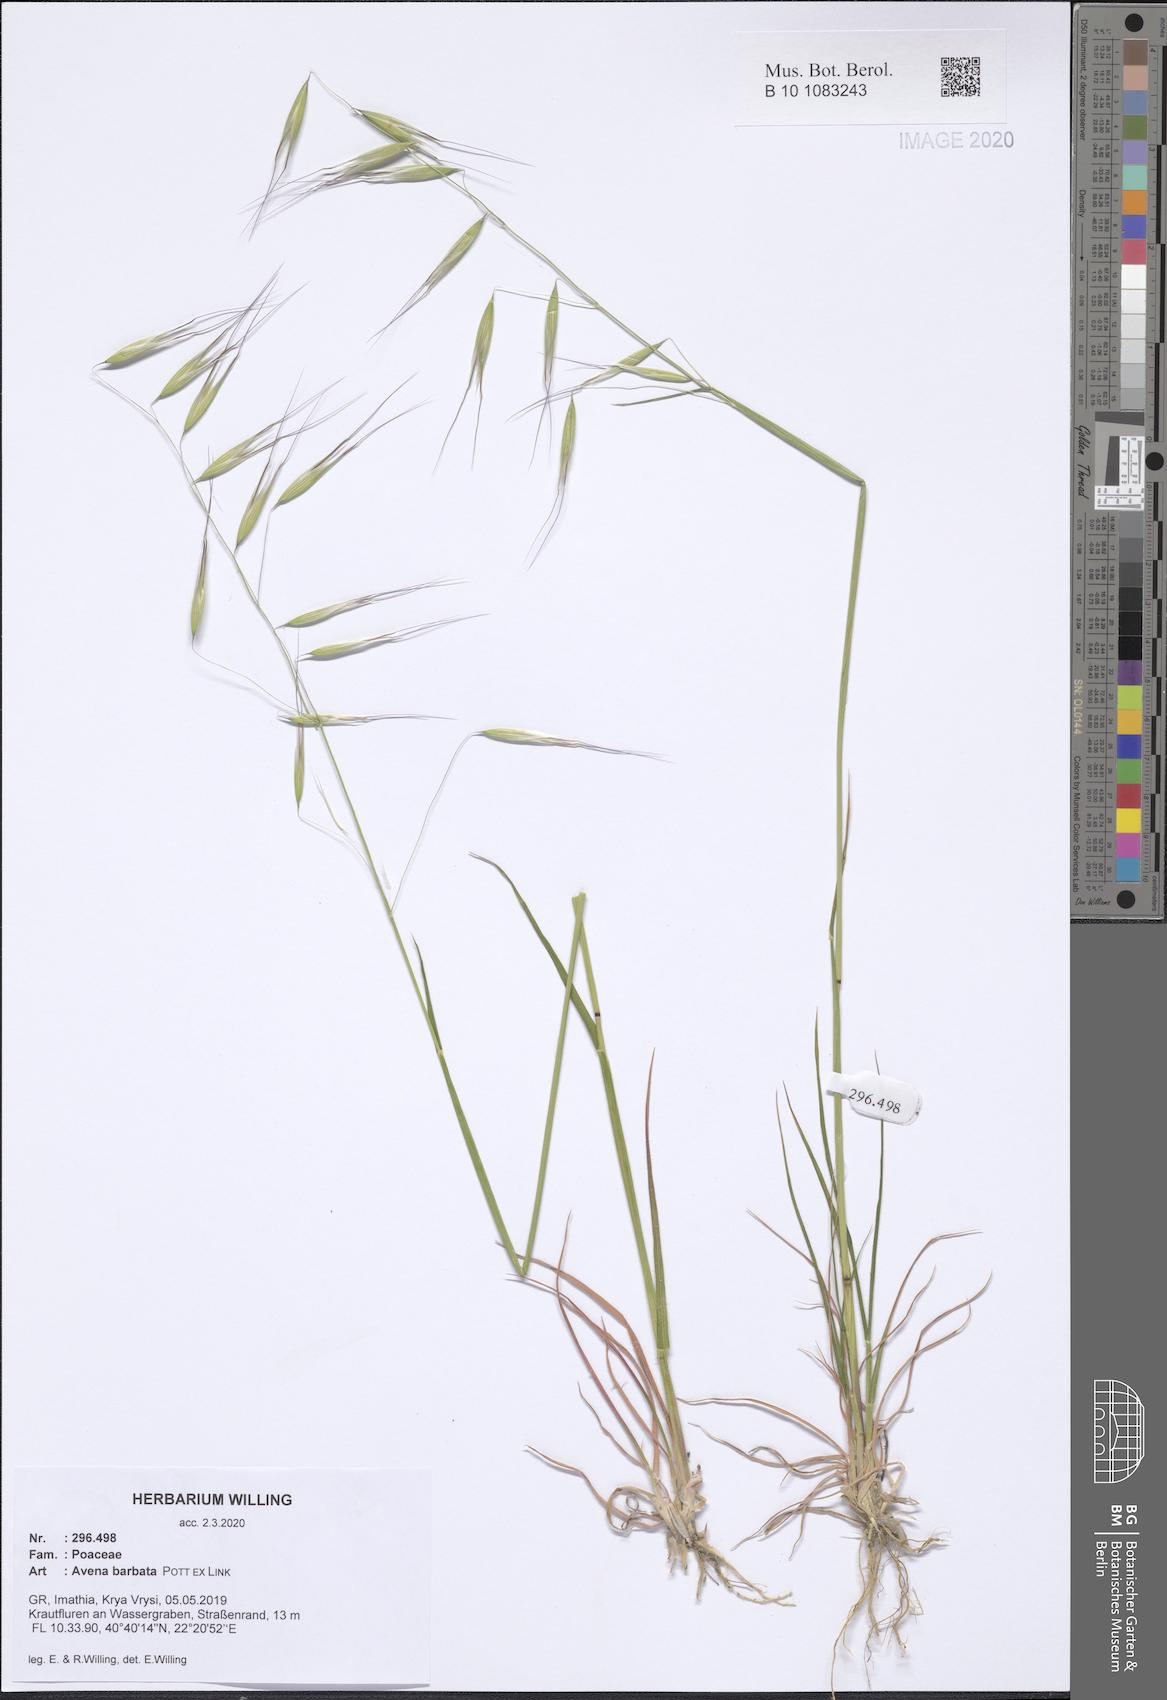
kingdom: Plantae
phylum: Tracheophyta
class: Liliopsida
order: Poales
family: Poaceae
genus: Avena
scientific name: Avena barbata
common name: Slender oat
